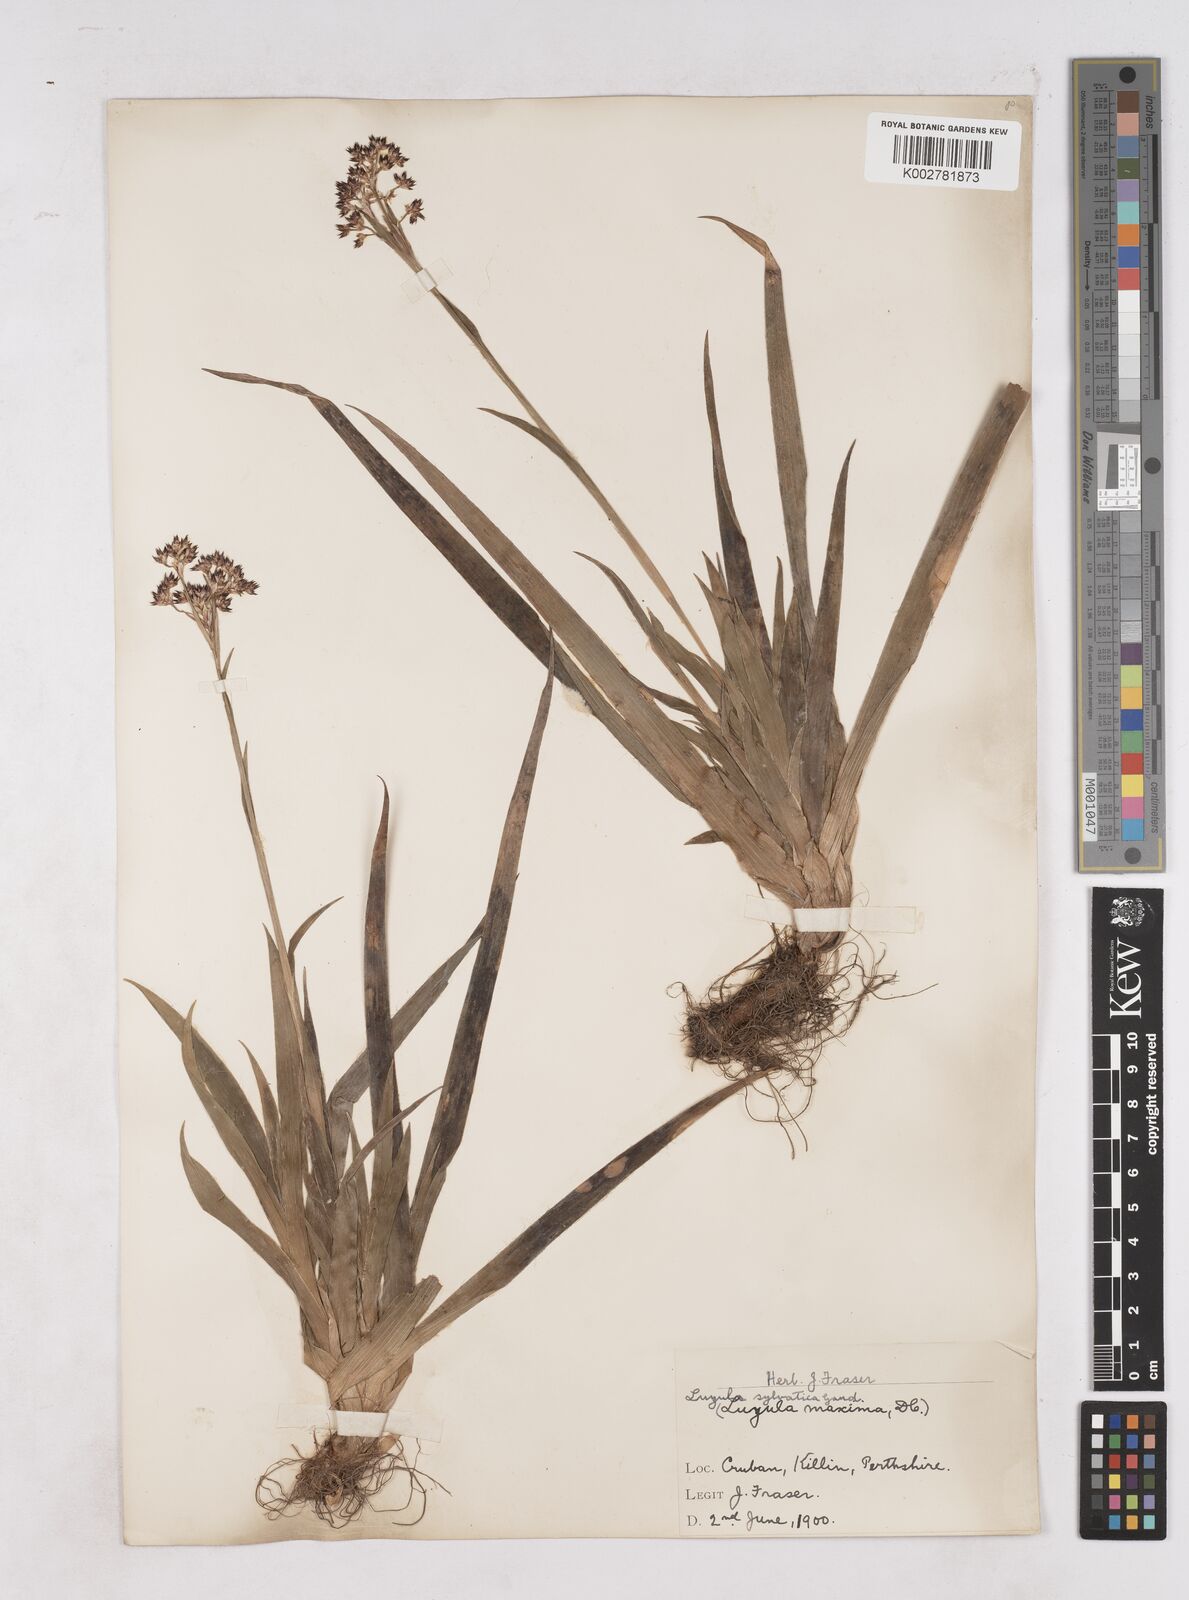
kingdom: Plantae
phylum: Tracheophyta
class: Liliopsida
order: Poales
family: Juncaceae
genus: Luzula
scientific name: Luzula sylvatica
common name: Great wood-rush
